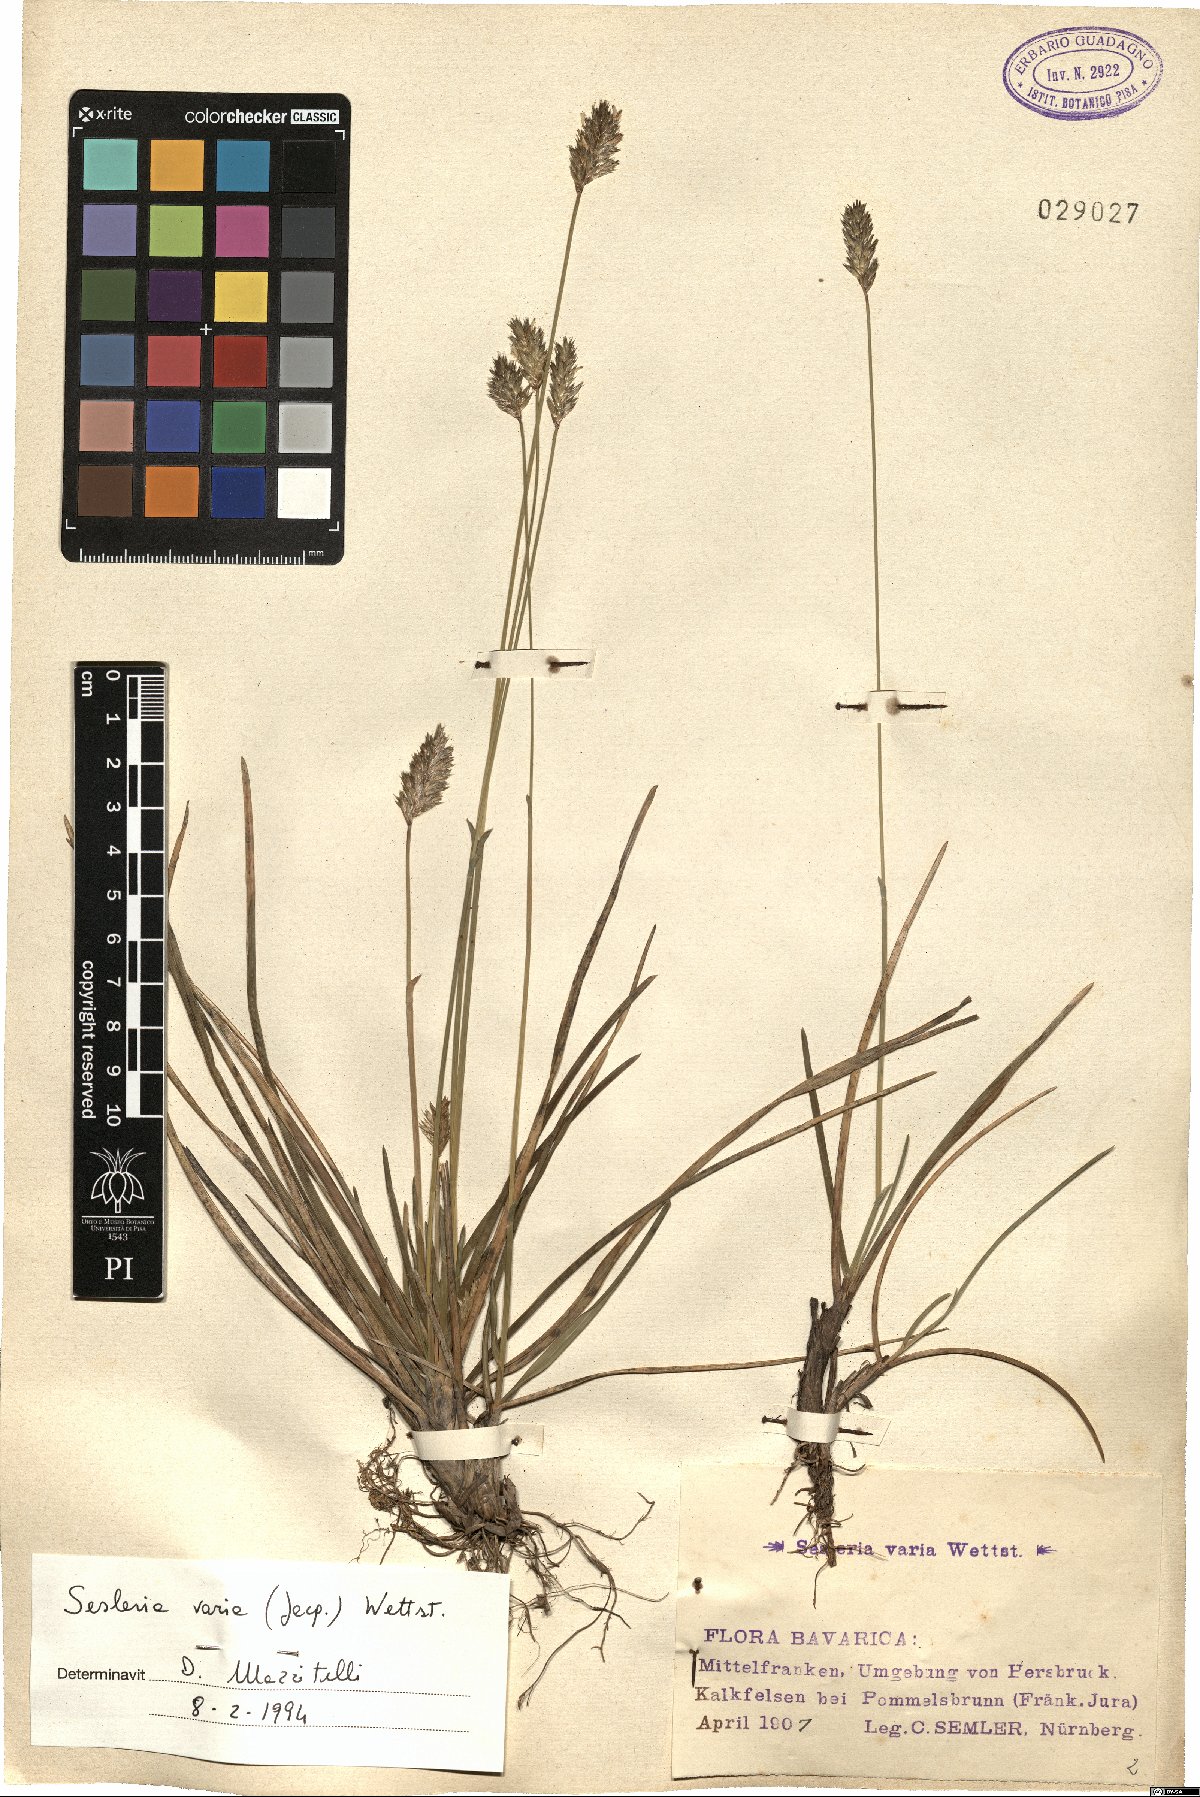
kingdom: Plantae
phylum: Tracheophyta
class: Liliopsida
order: Poales
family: Poaceae
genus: Sesleria
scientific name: Sesleria caerulea
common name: Blue moor-grass
